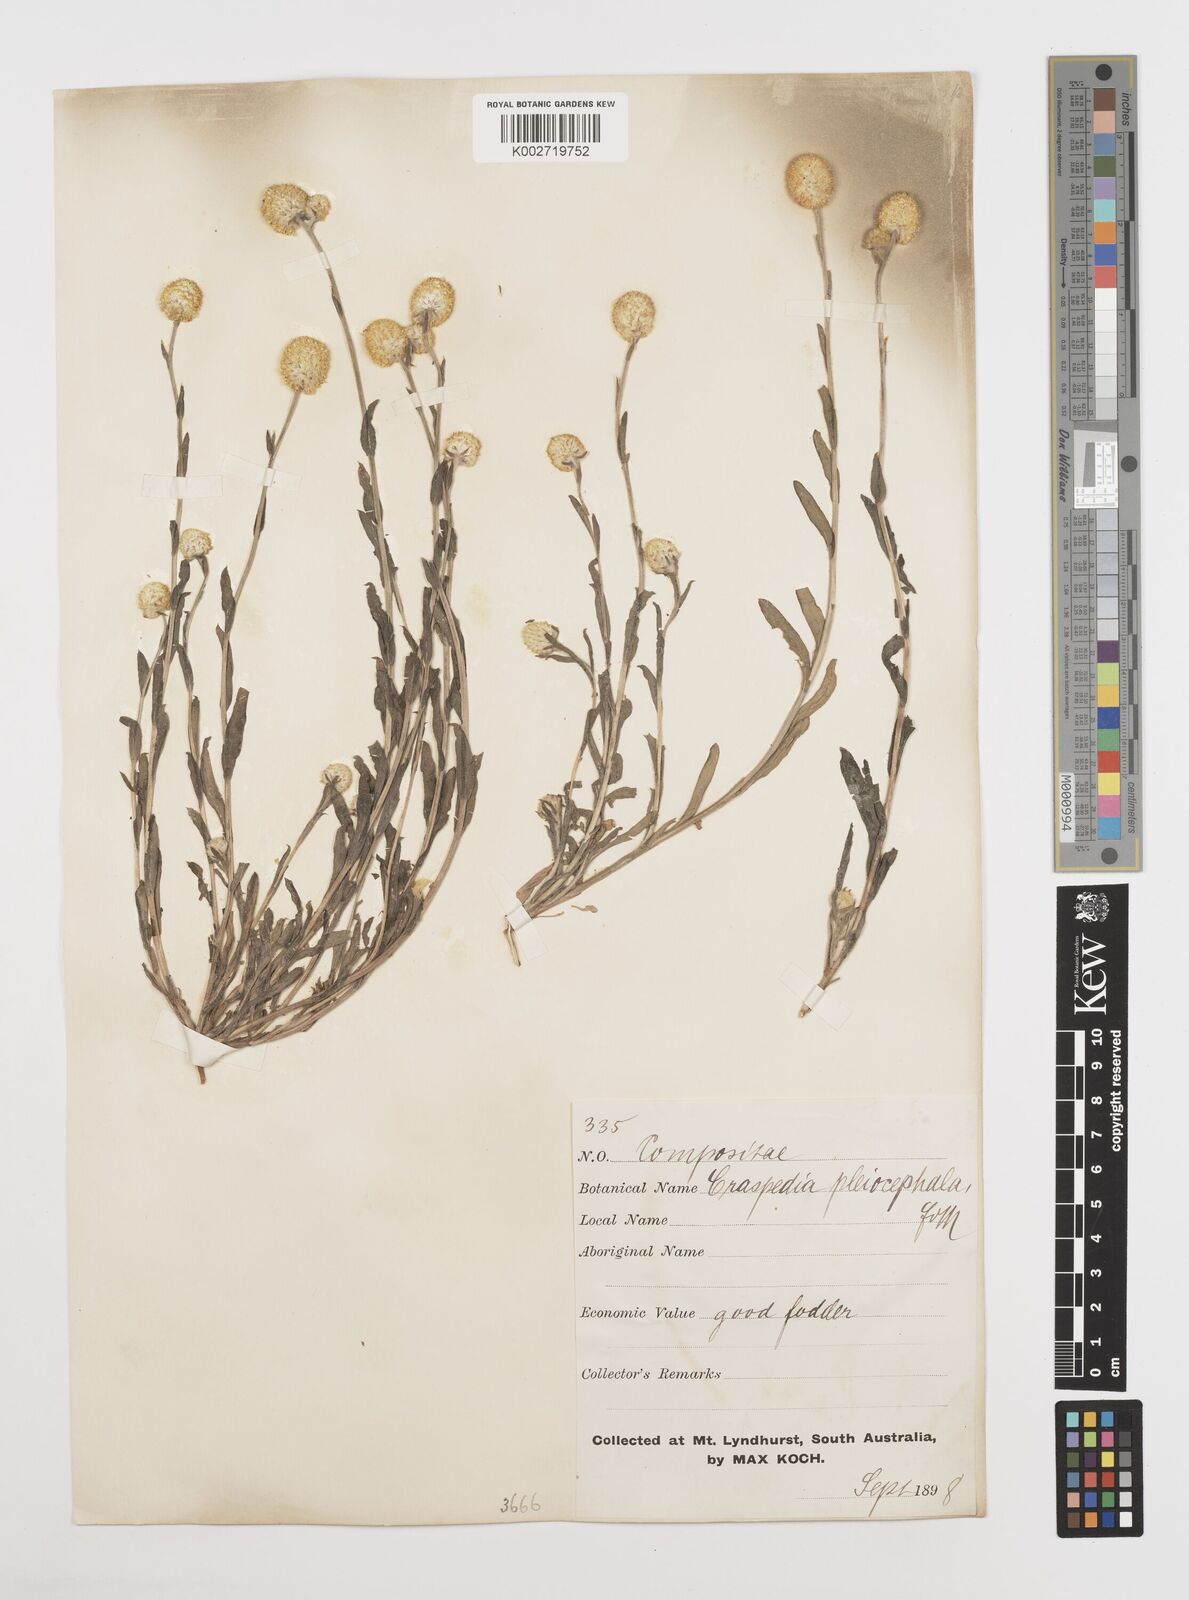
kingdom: Plantae
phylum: Tracheophyta
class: Magnoliopsida
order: Asterales
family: Asteraceae
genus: Pycnosorus
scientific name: Pycnosorus pleiocephalus
